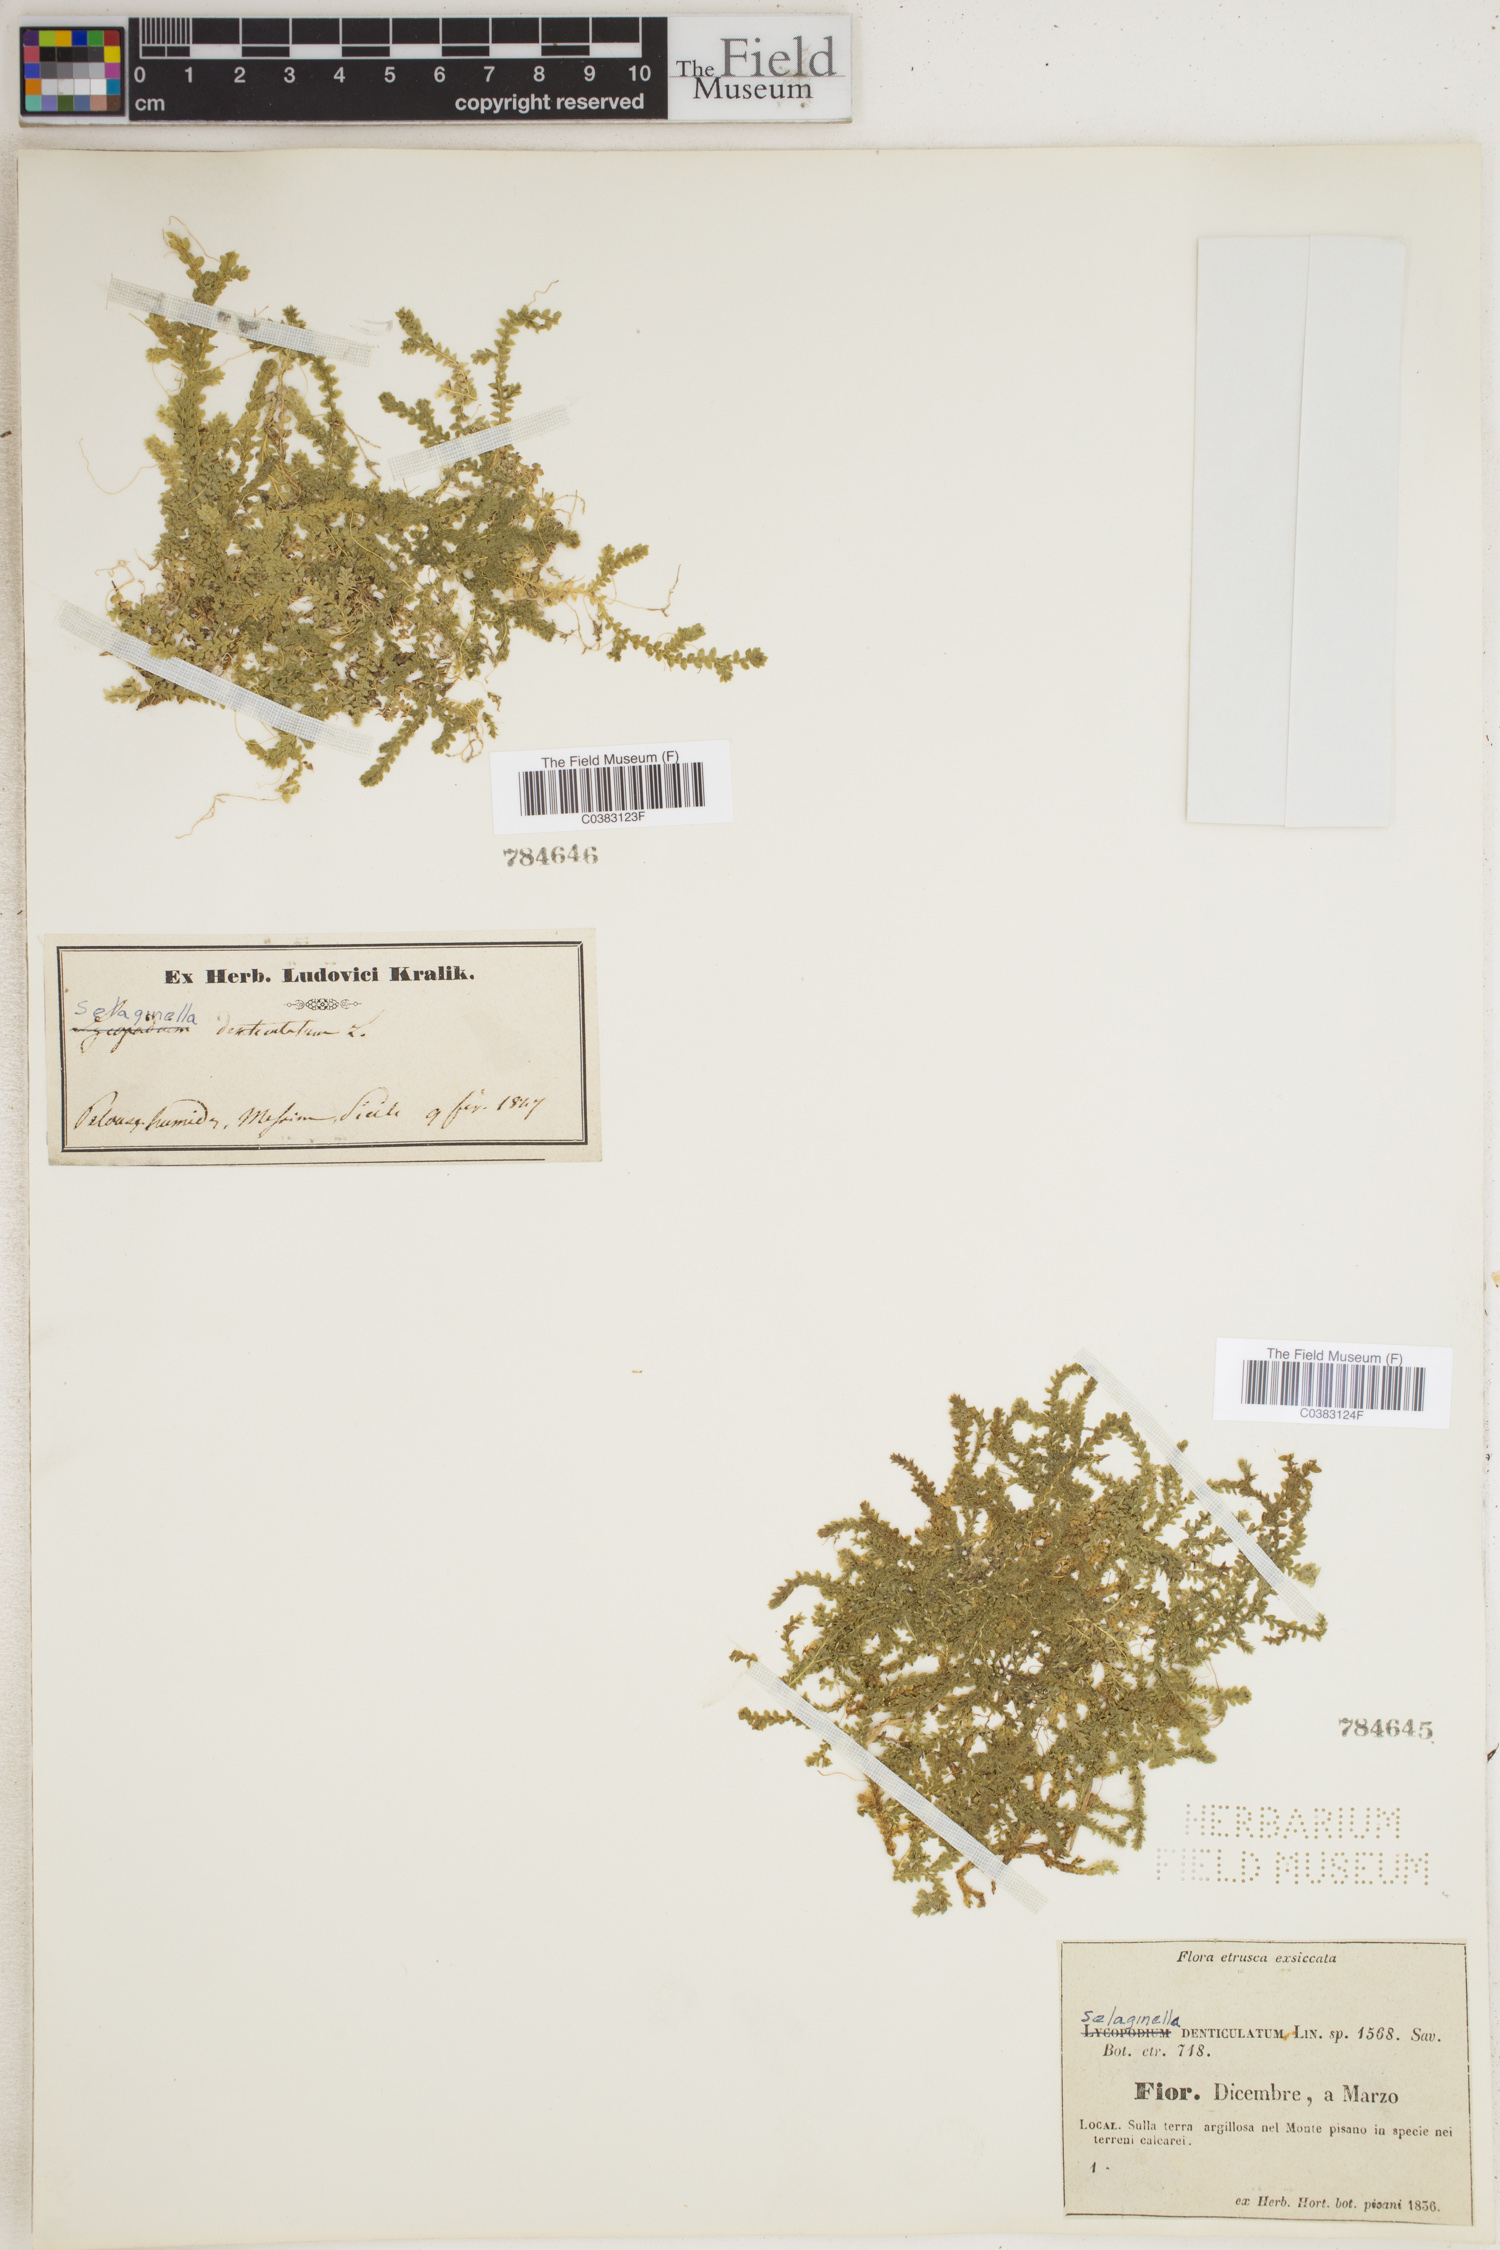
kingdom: Plantae
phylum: Tracheophyta
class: Lycopodiopsida
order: Selaginellales
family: Selaginellaceae
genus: Selaginella
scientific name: Selaginella denticulata
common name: Toothed-leaved clubmoss
